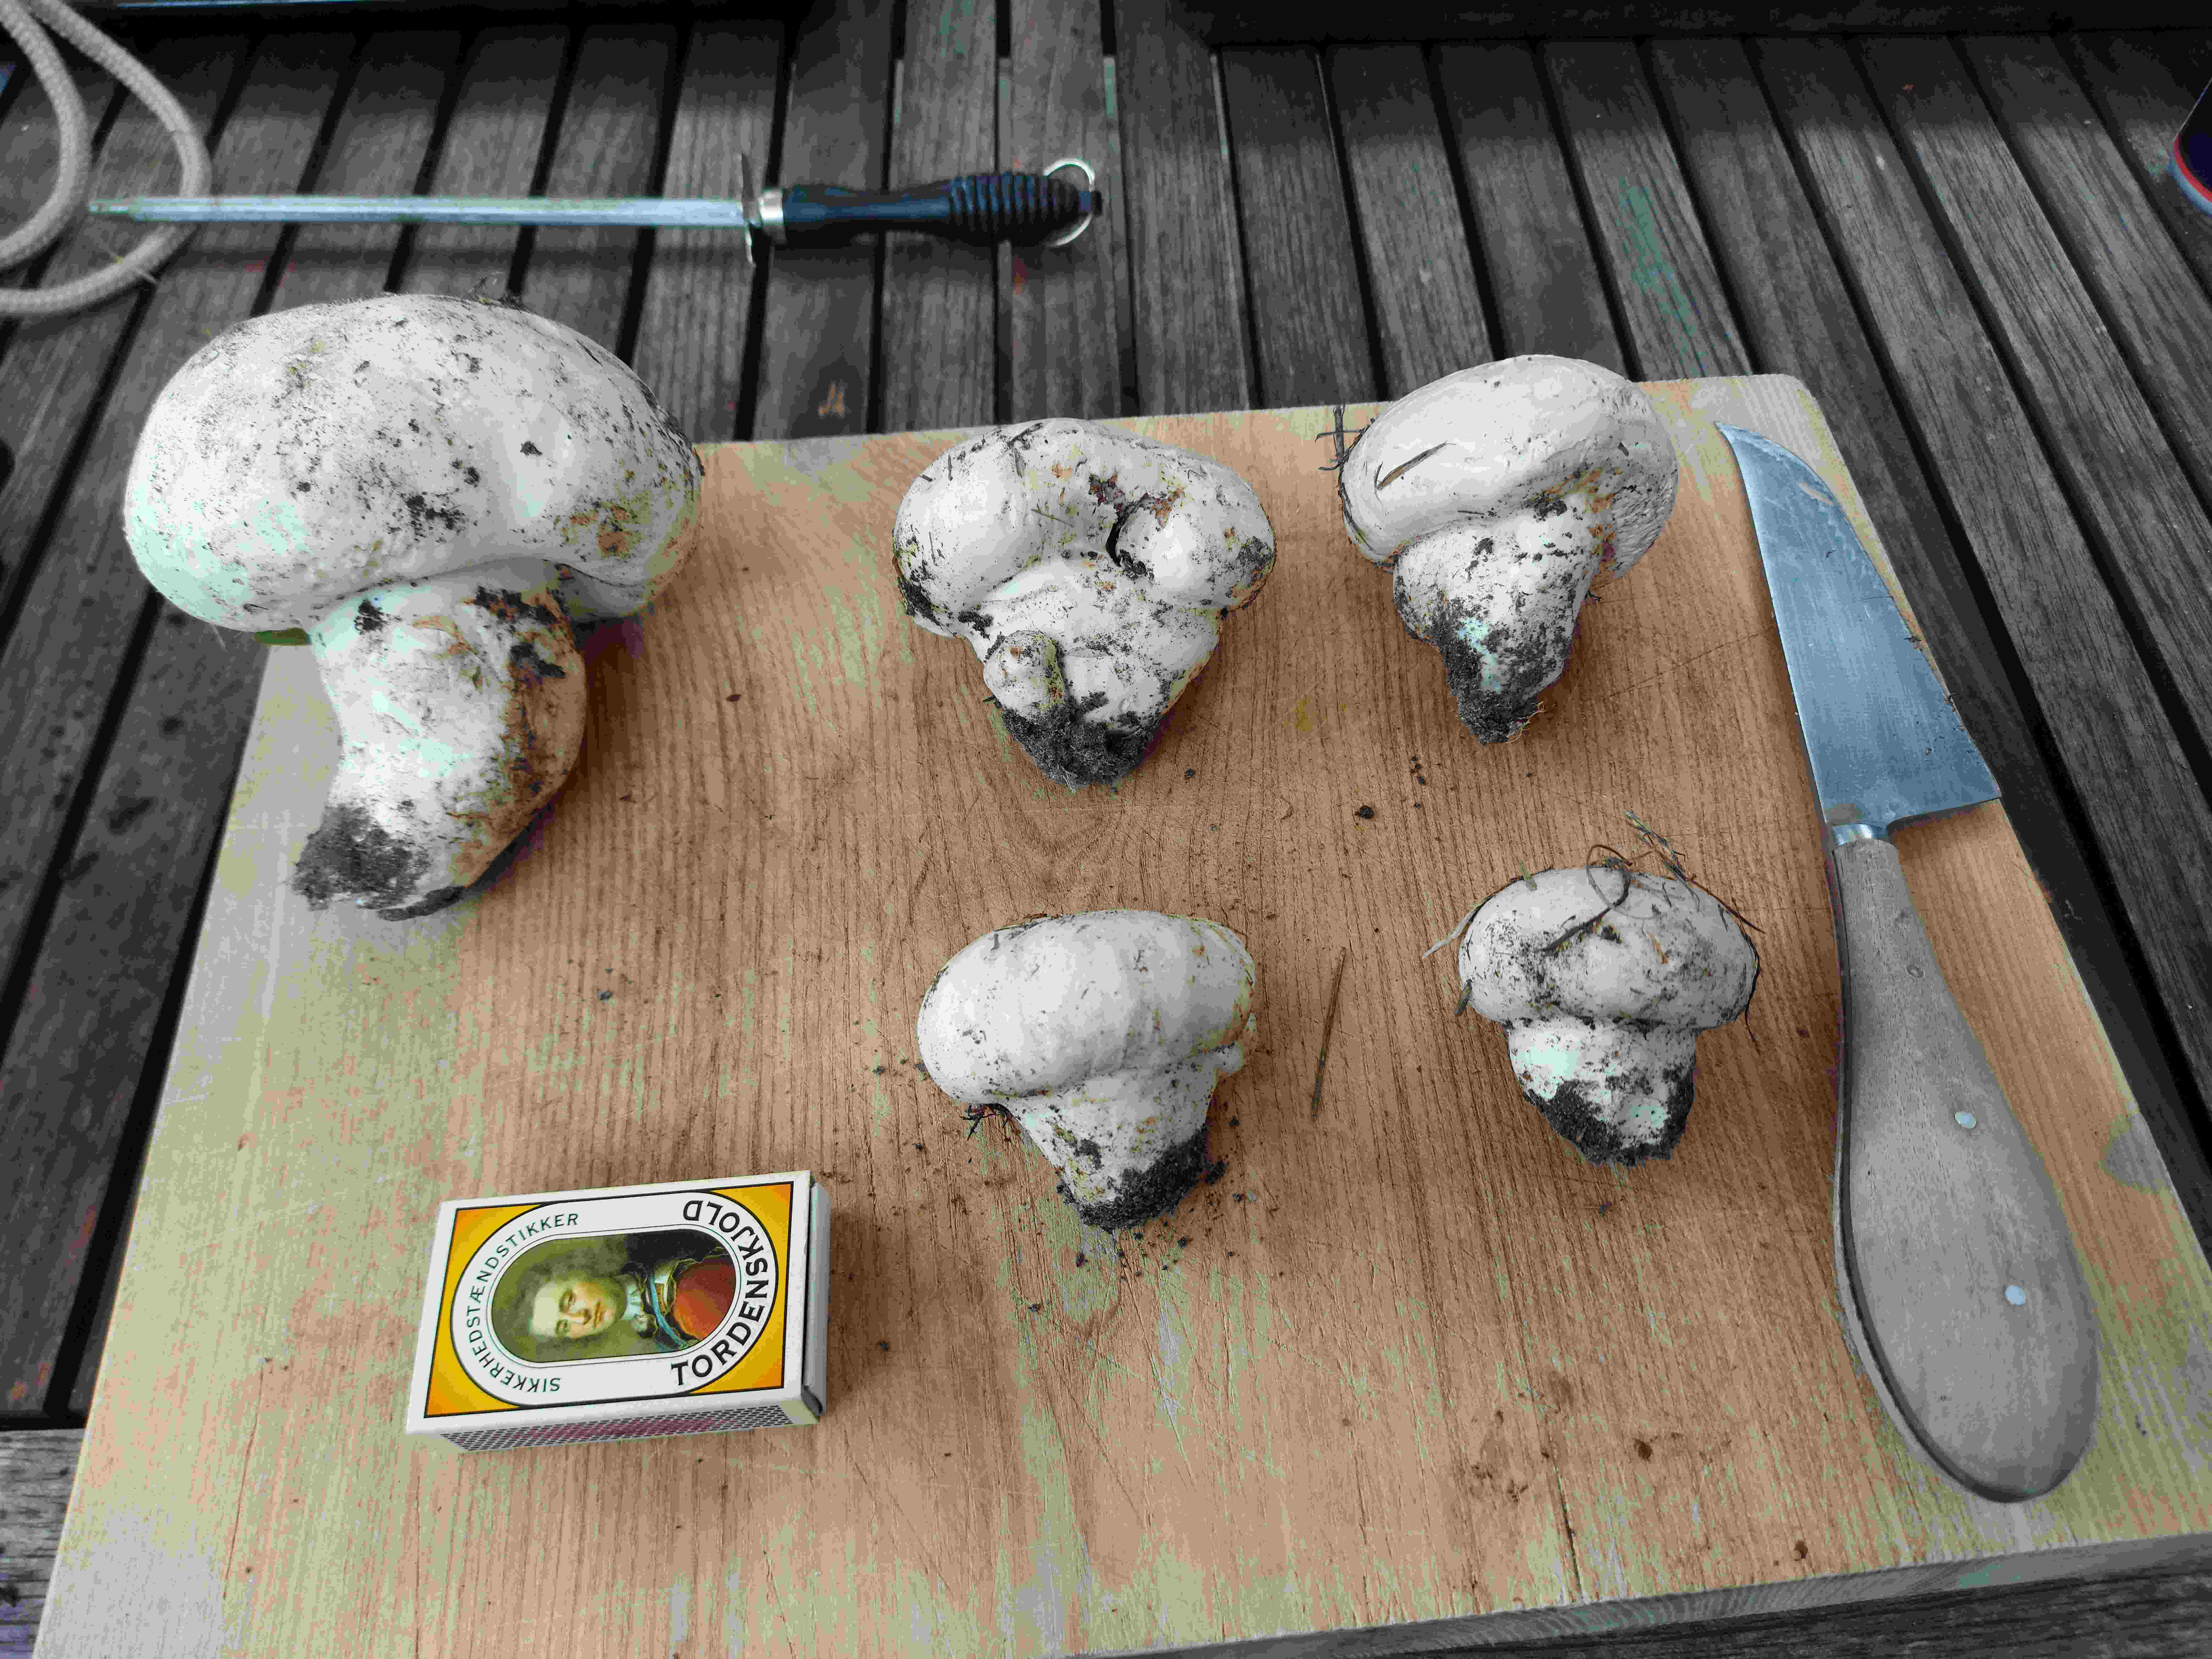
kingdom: Fungi
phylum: Basidiomycota
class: Agaricomycetes
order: Agaricales
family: Agaricaceae
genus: Agaricus
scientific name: Agaricus campestris
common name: mark-champignon
